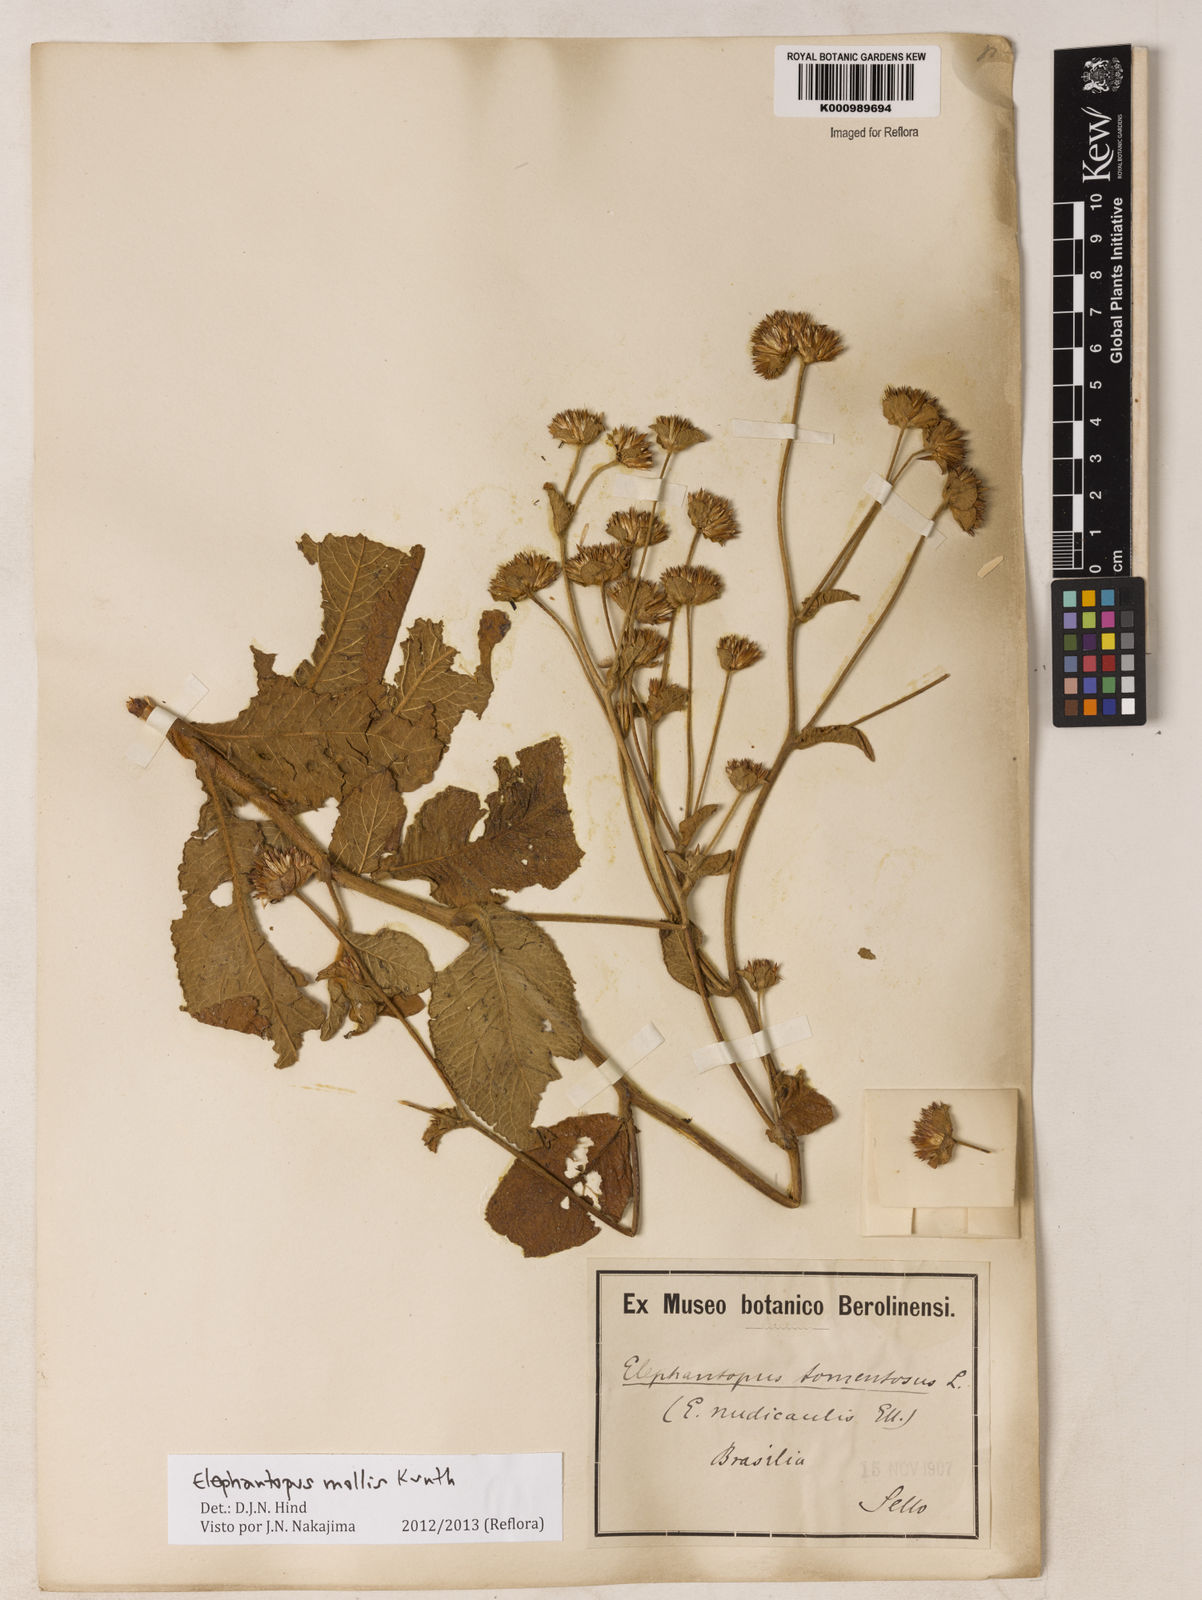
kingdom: Plantae
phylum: Tracheophyta
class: Magnoliopsida
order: Asterales
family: Asteraceae
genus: Elephantopus
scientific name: Elephantopus mollis
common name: Soft elephantsfoot
